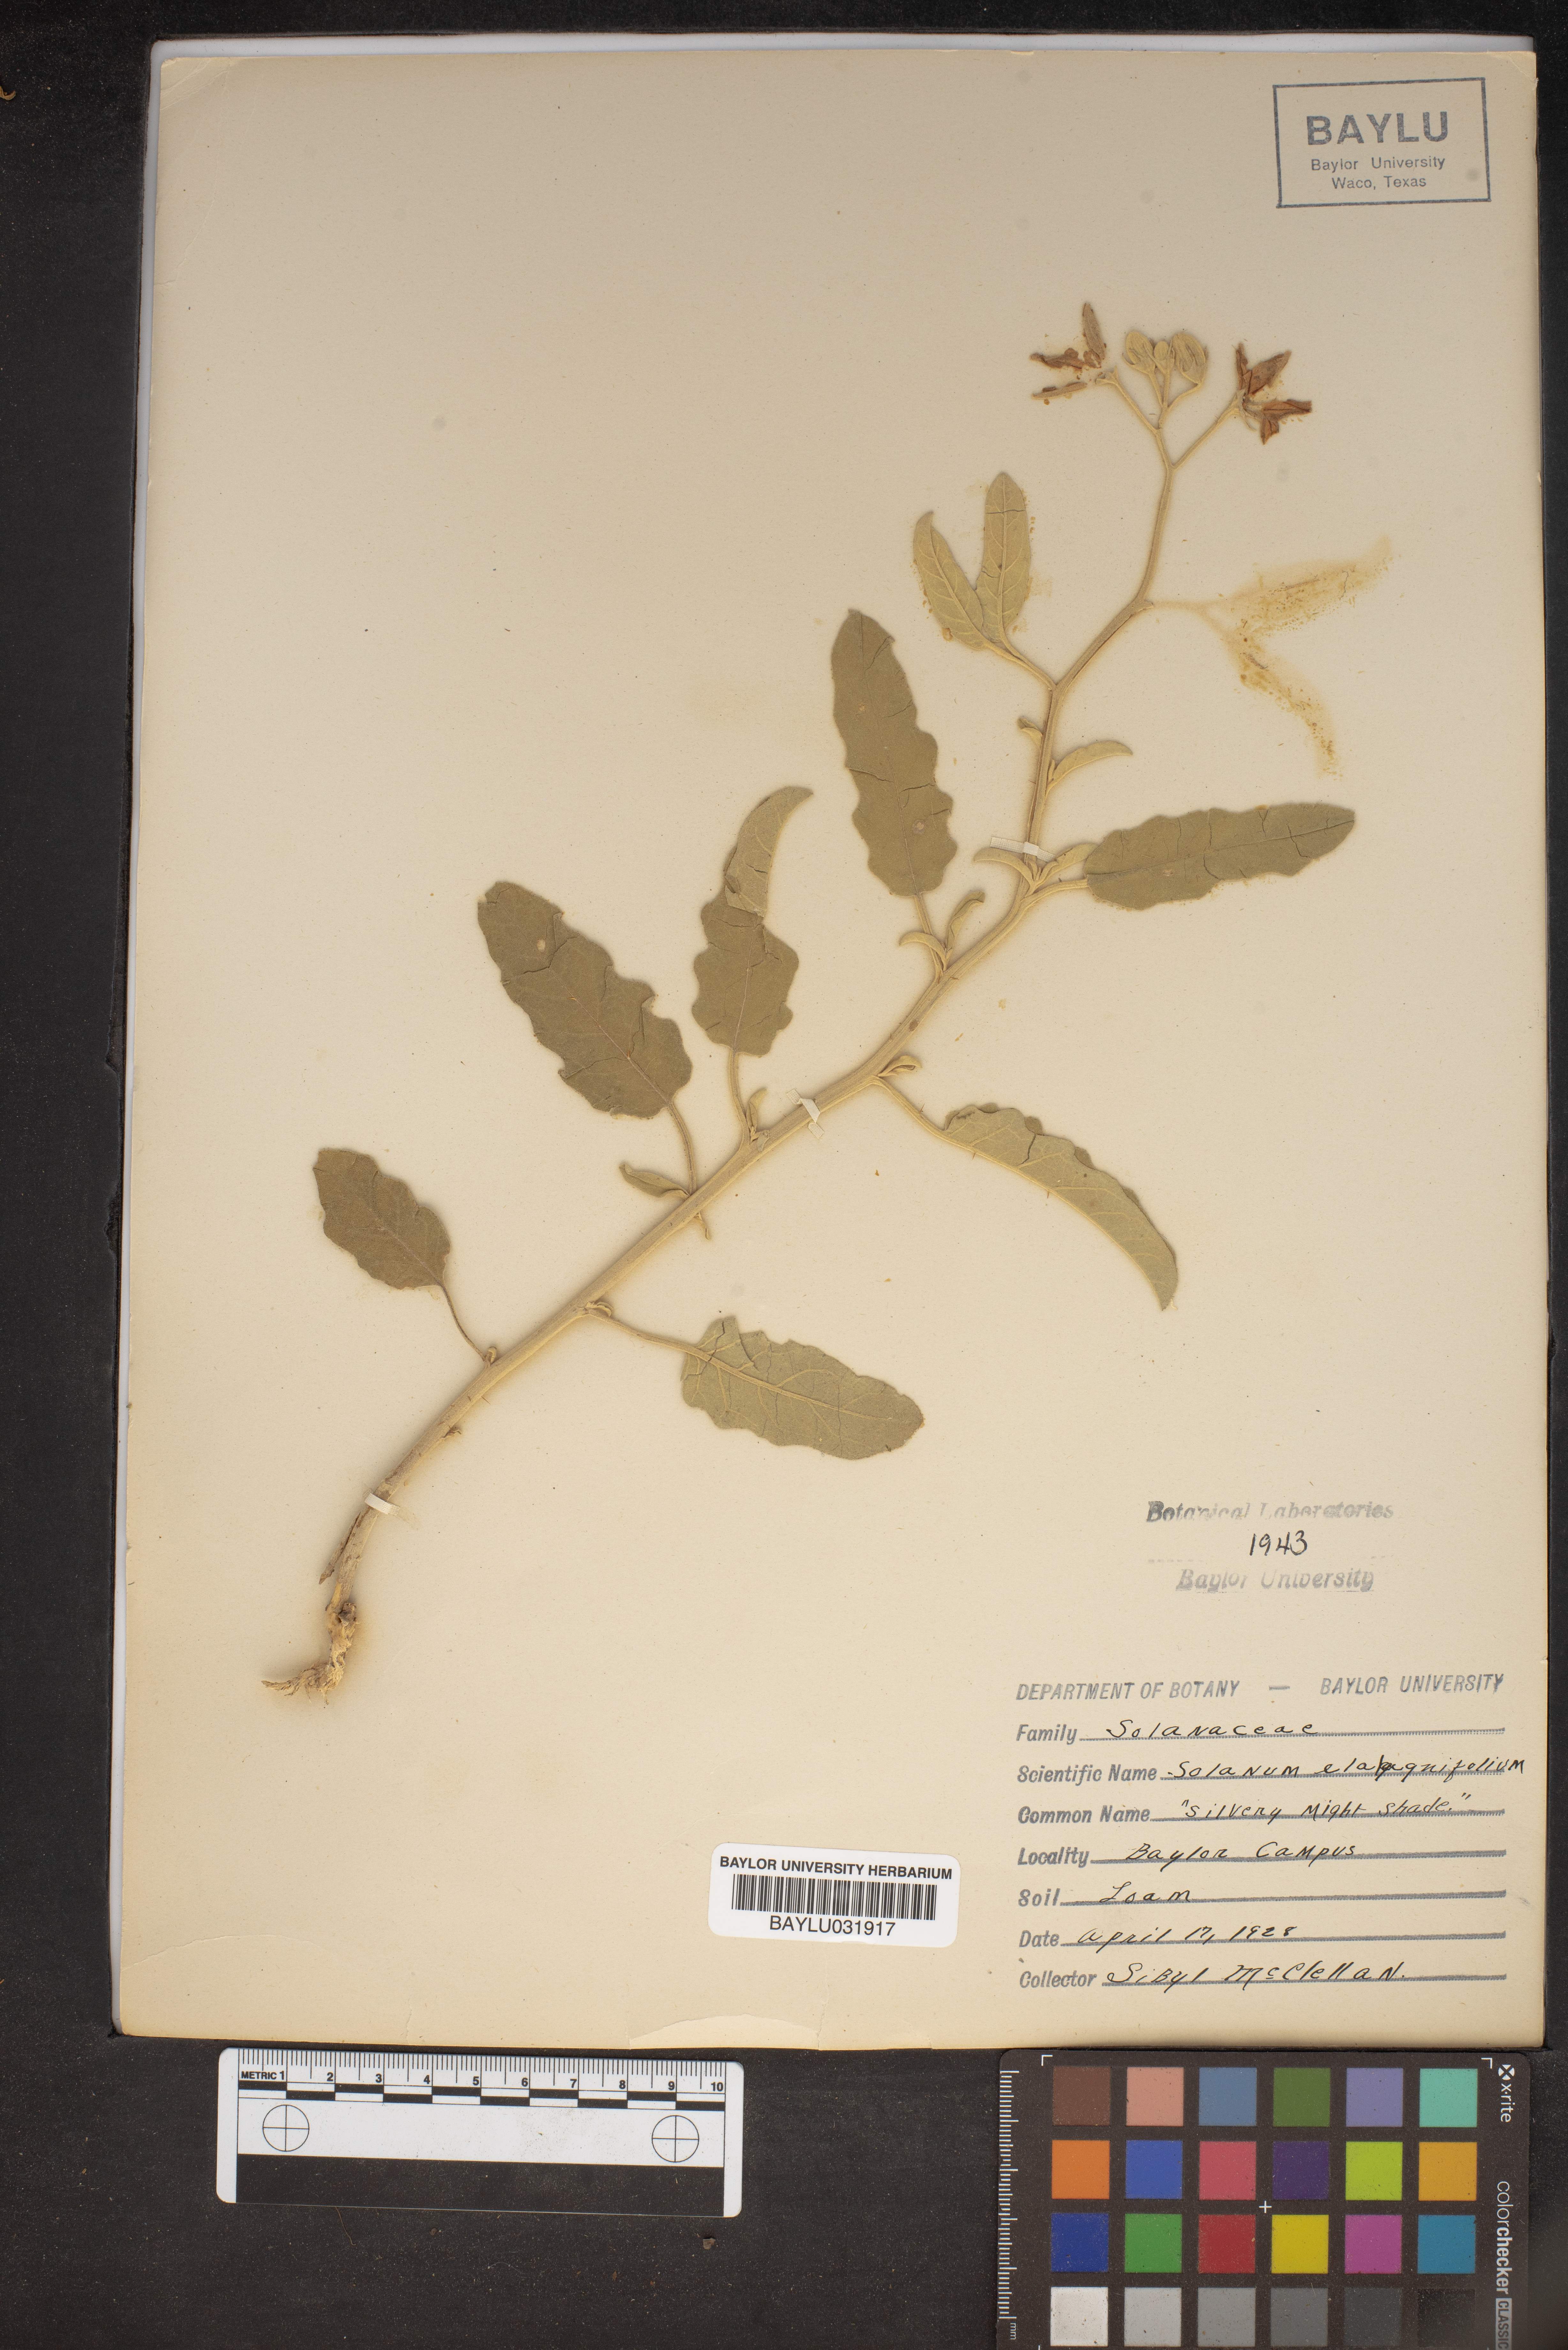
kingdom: Plantae
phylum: Tracheophyta
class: Magnoliopsida
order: Solanales
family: Solanaceae
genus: Solanum
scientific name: Solanum elaeagnifolium
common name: Silverleaf nightshade
